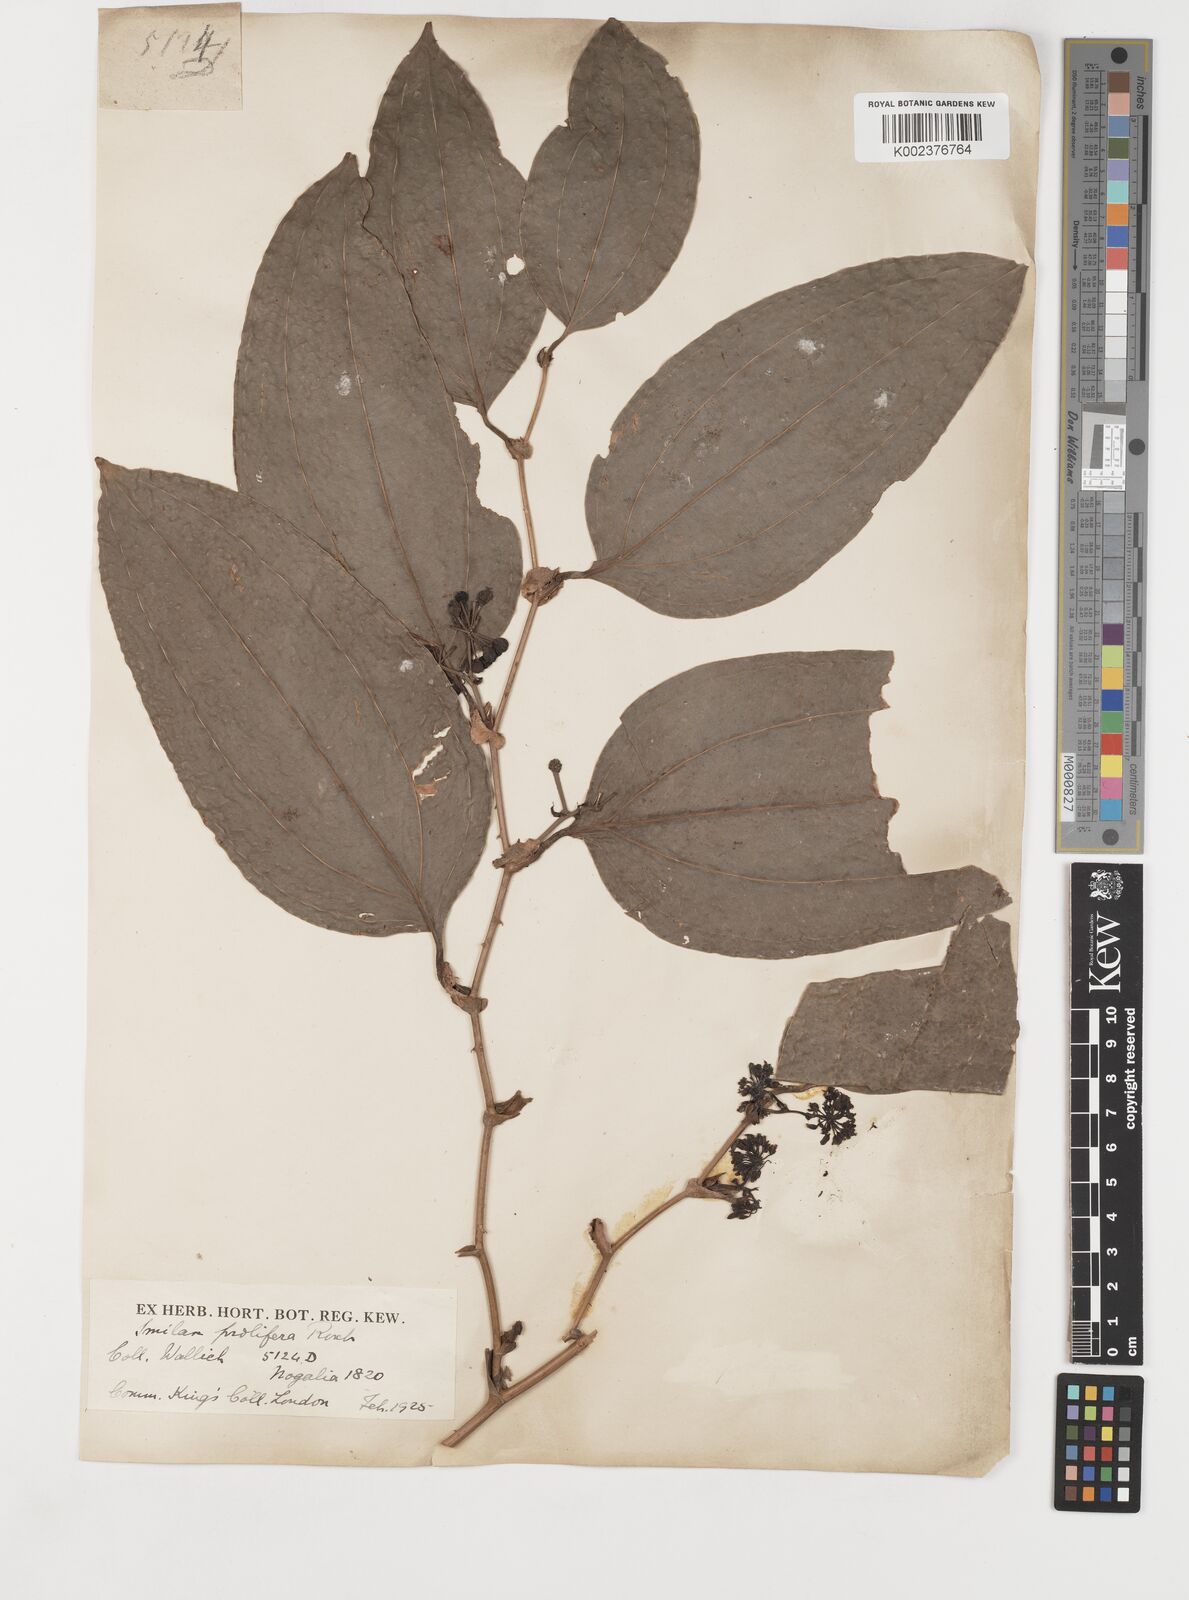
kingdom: Plantae
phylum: Tracheophyta
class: Liliopsida
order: Liliales
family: Smilacaceae
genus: Smilax
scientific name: Smilax ocreata
